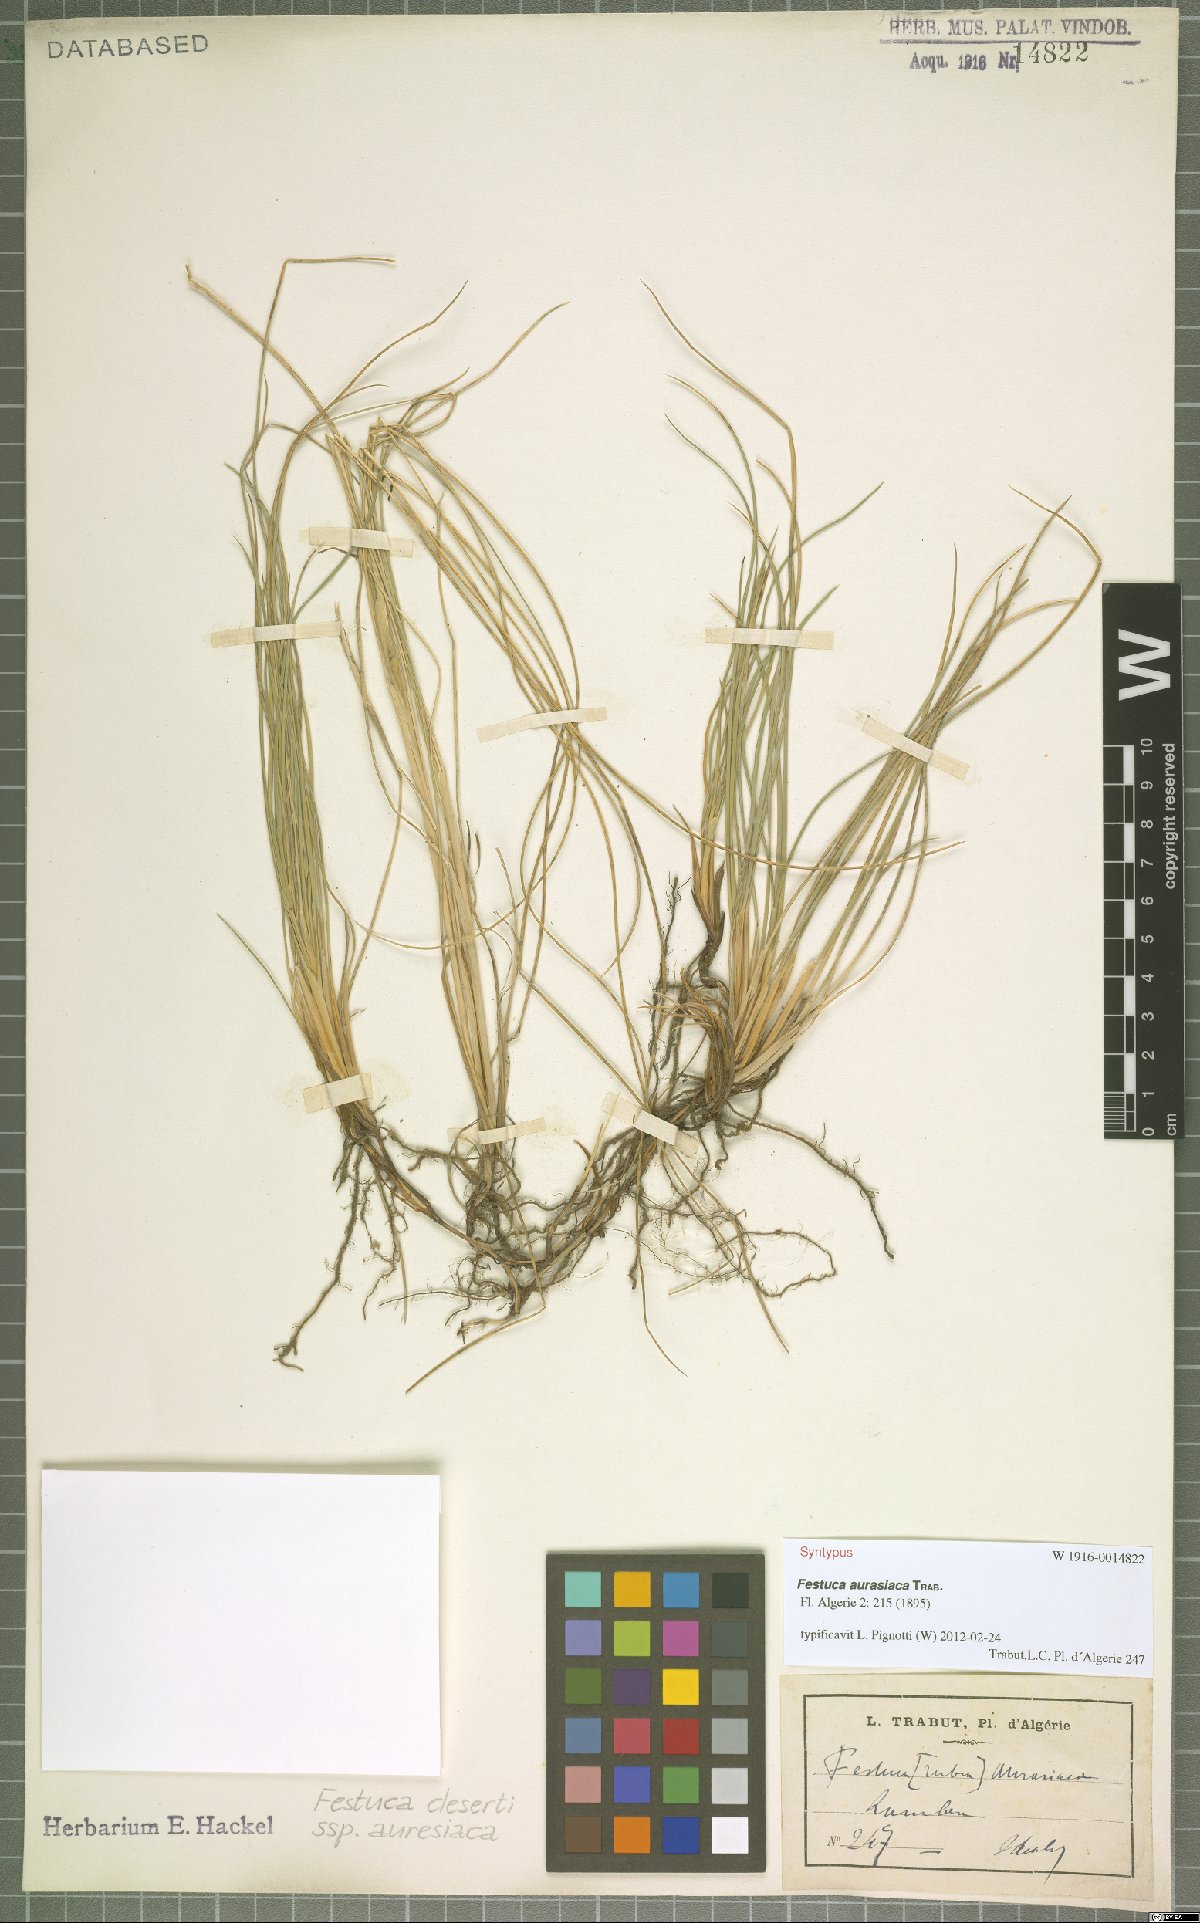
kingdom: Plantae
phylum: Tracheophyta
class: Liliopsida
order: Poales
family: Poaceae
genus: Festuca
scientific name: Festuca rubra
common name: Red fescue
